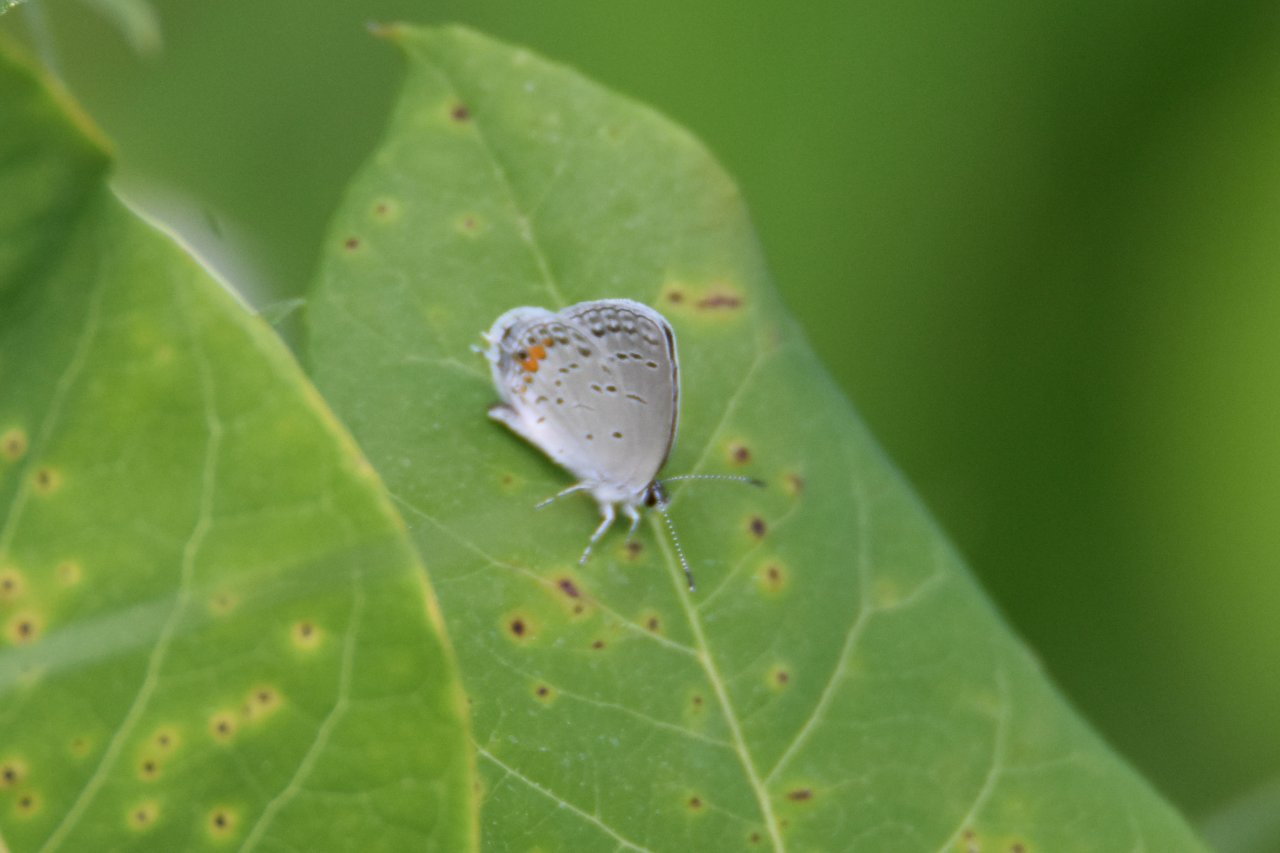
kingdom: Animalia
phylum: Arthropoda
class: Insecta
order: Lepidoptera
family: Lycaenidae
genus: Elkalyce
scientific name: Elkalyce comyntas
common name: Eastern Tailed-Blue
